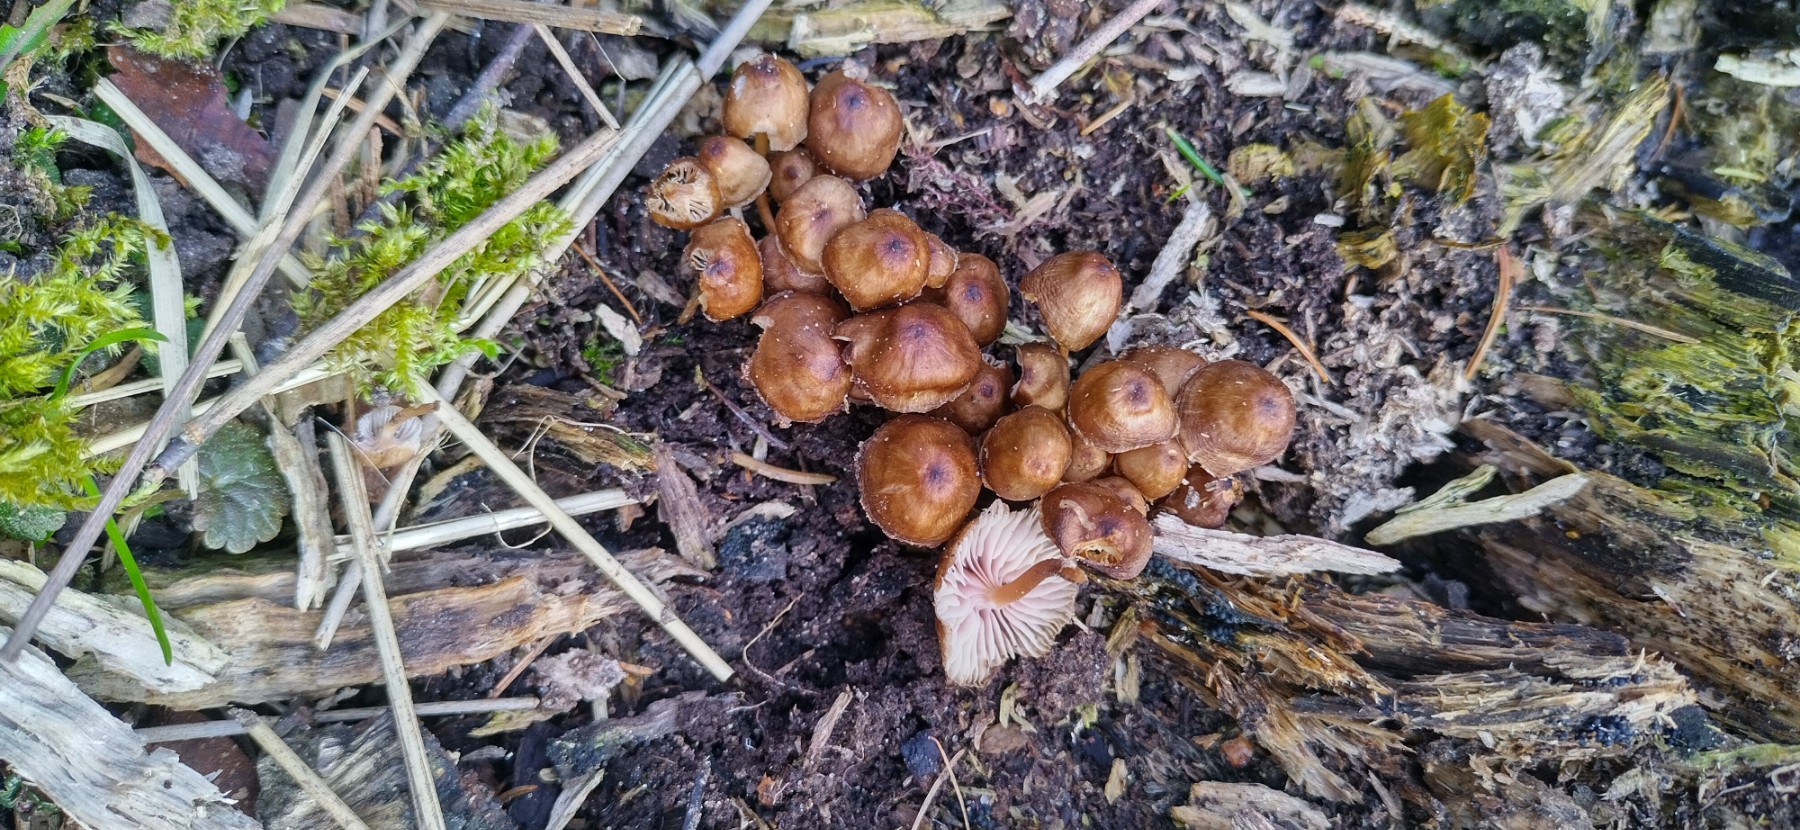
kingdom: Fungi
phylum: Basidiomycota
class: Agaricomycetes
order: Agaricales
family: Mycenaceae
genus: Mycena
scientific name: Mycena tintinnabulum
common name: vinter-huesvamp
